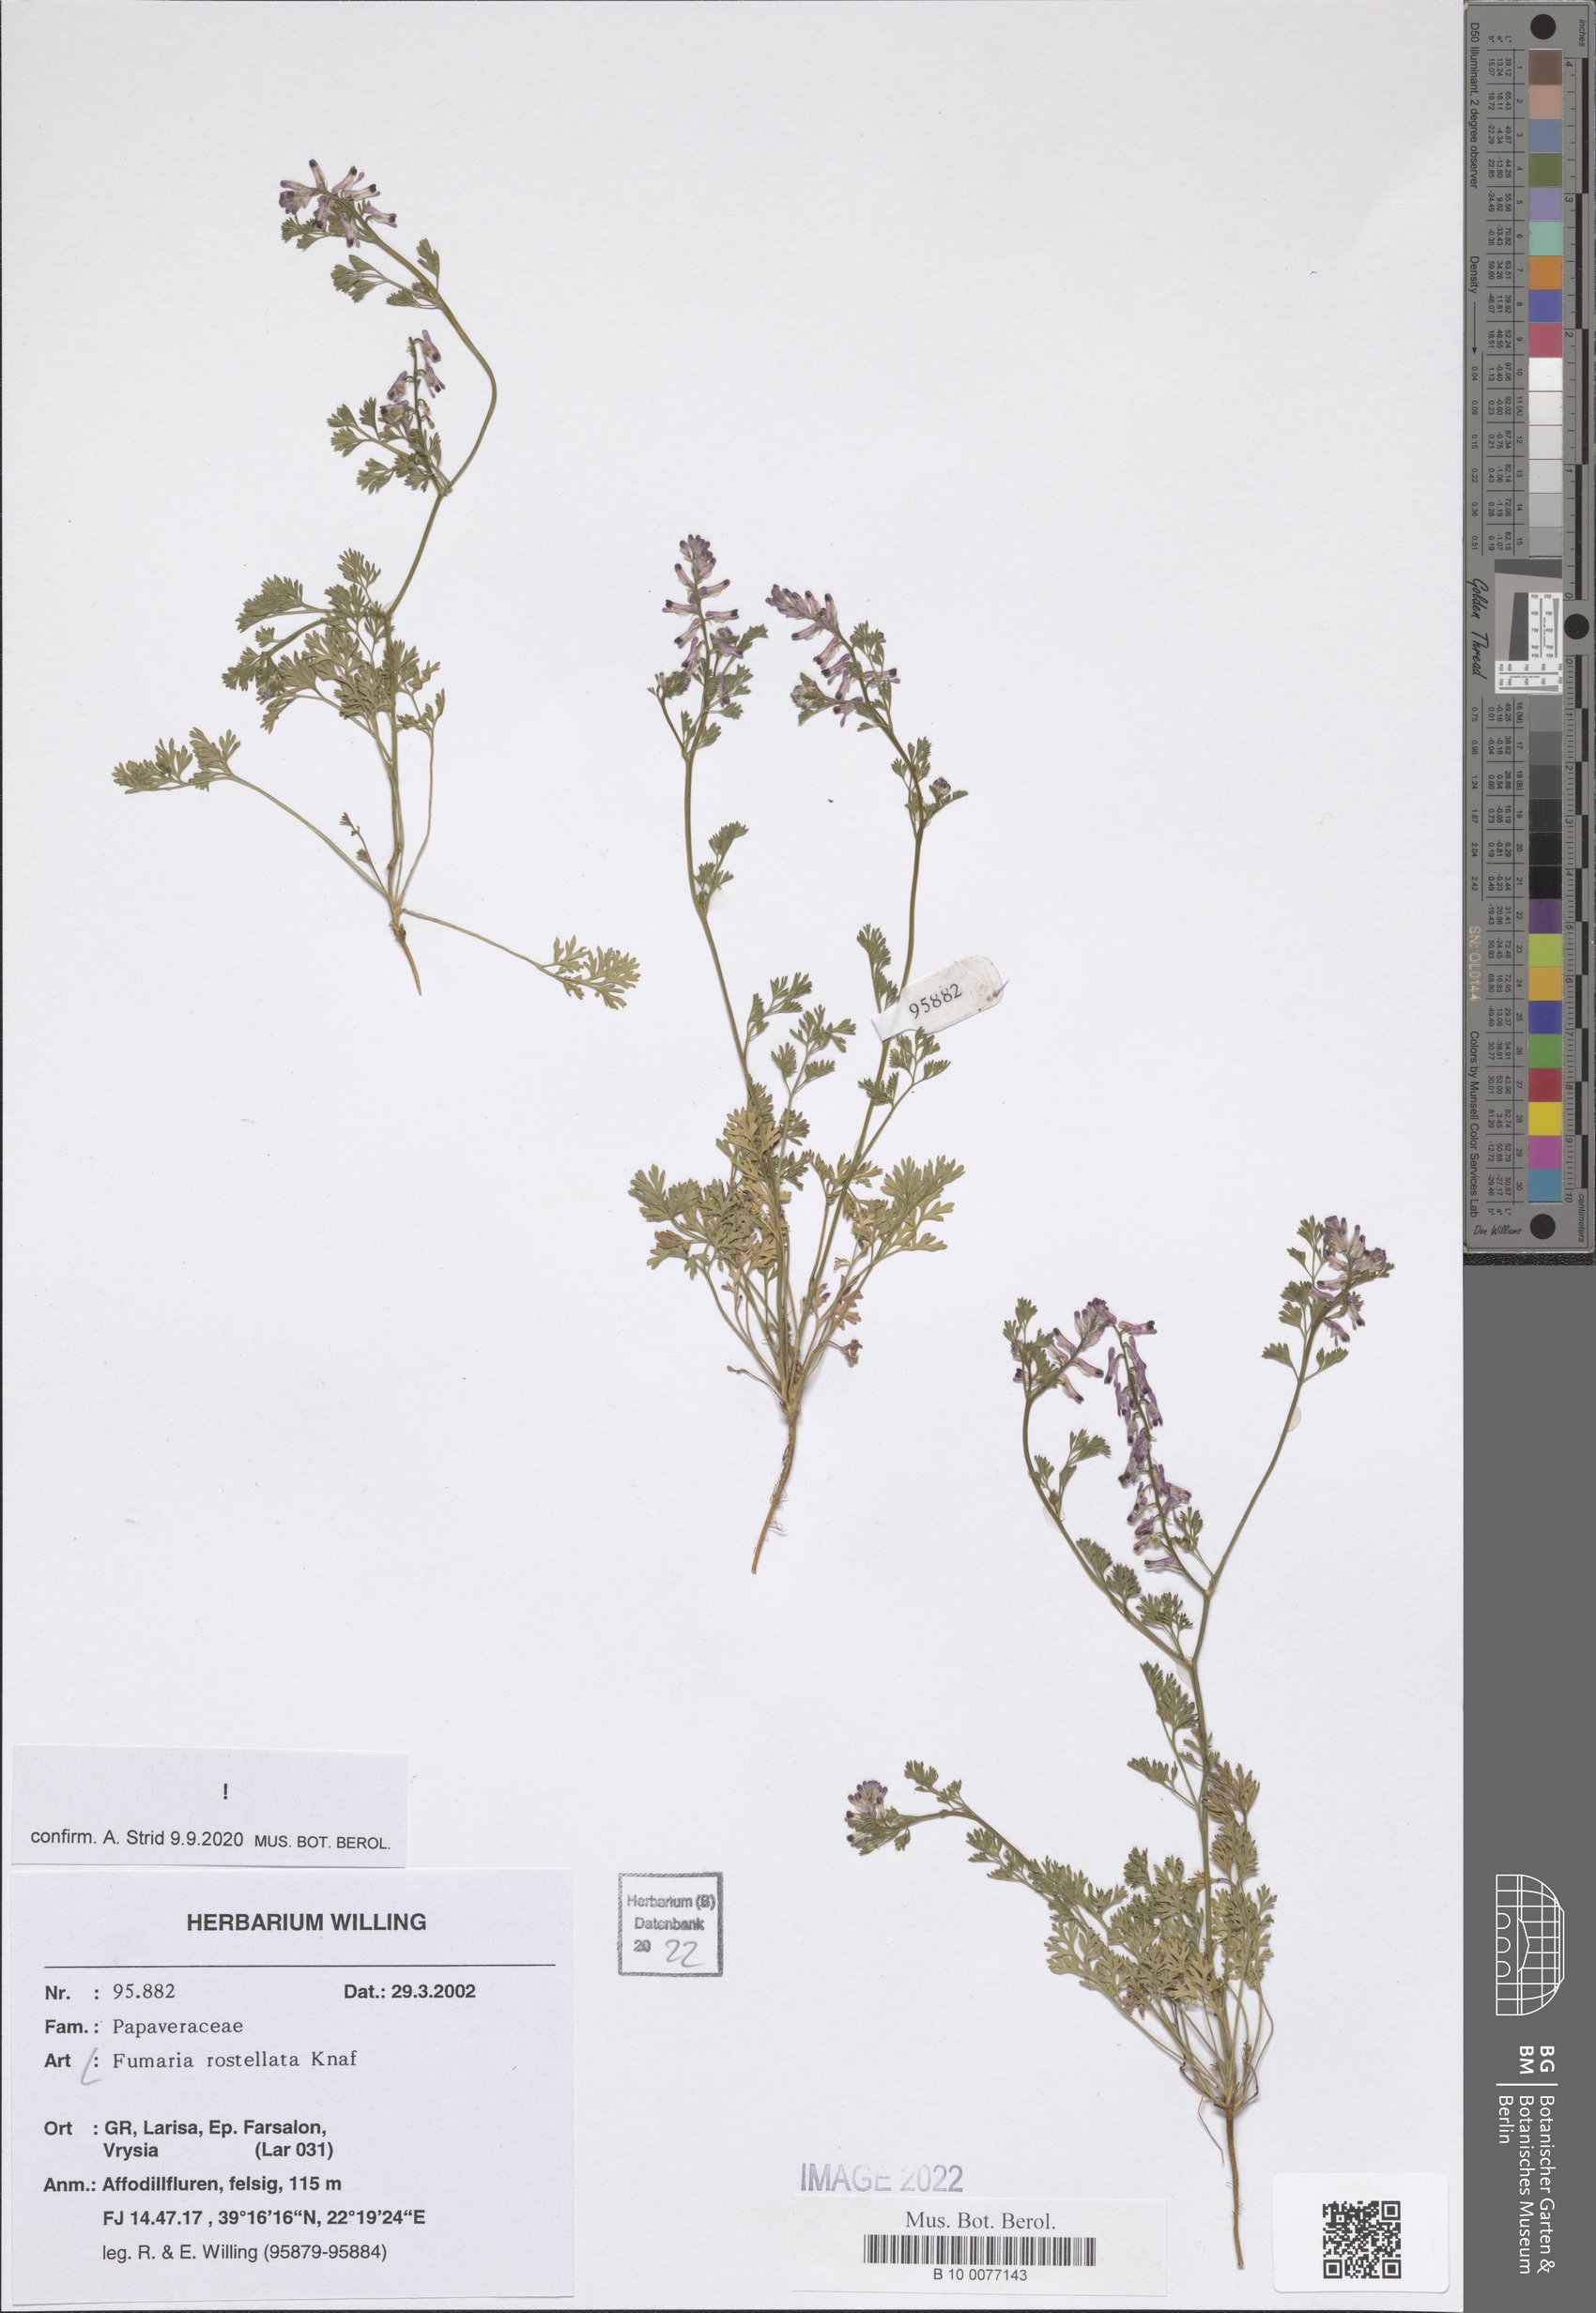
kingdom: Plantae
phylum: Tracheophyta
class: Magnoliopsida
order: Ranunculales
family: Papaveraceae
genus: Fumaria
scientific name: Fumaria rostellata
